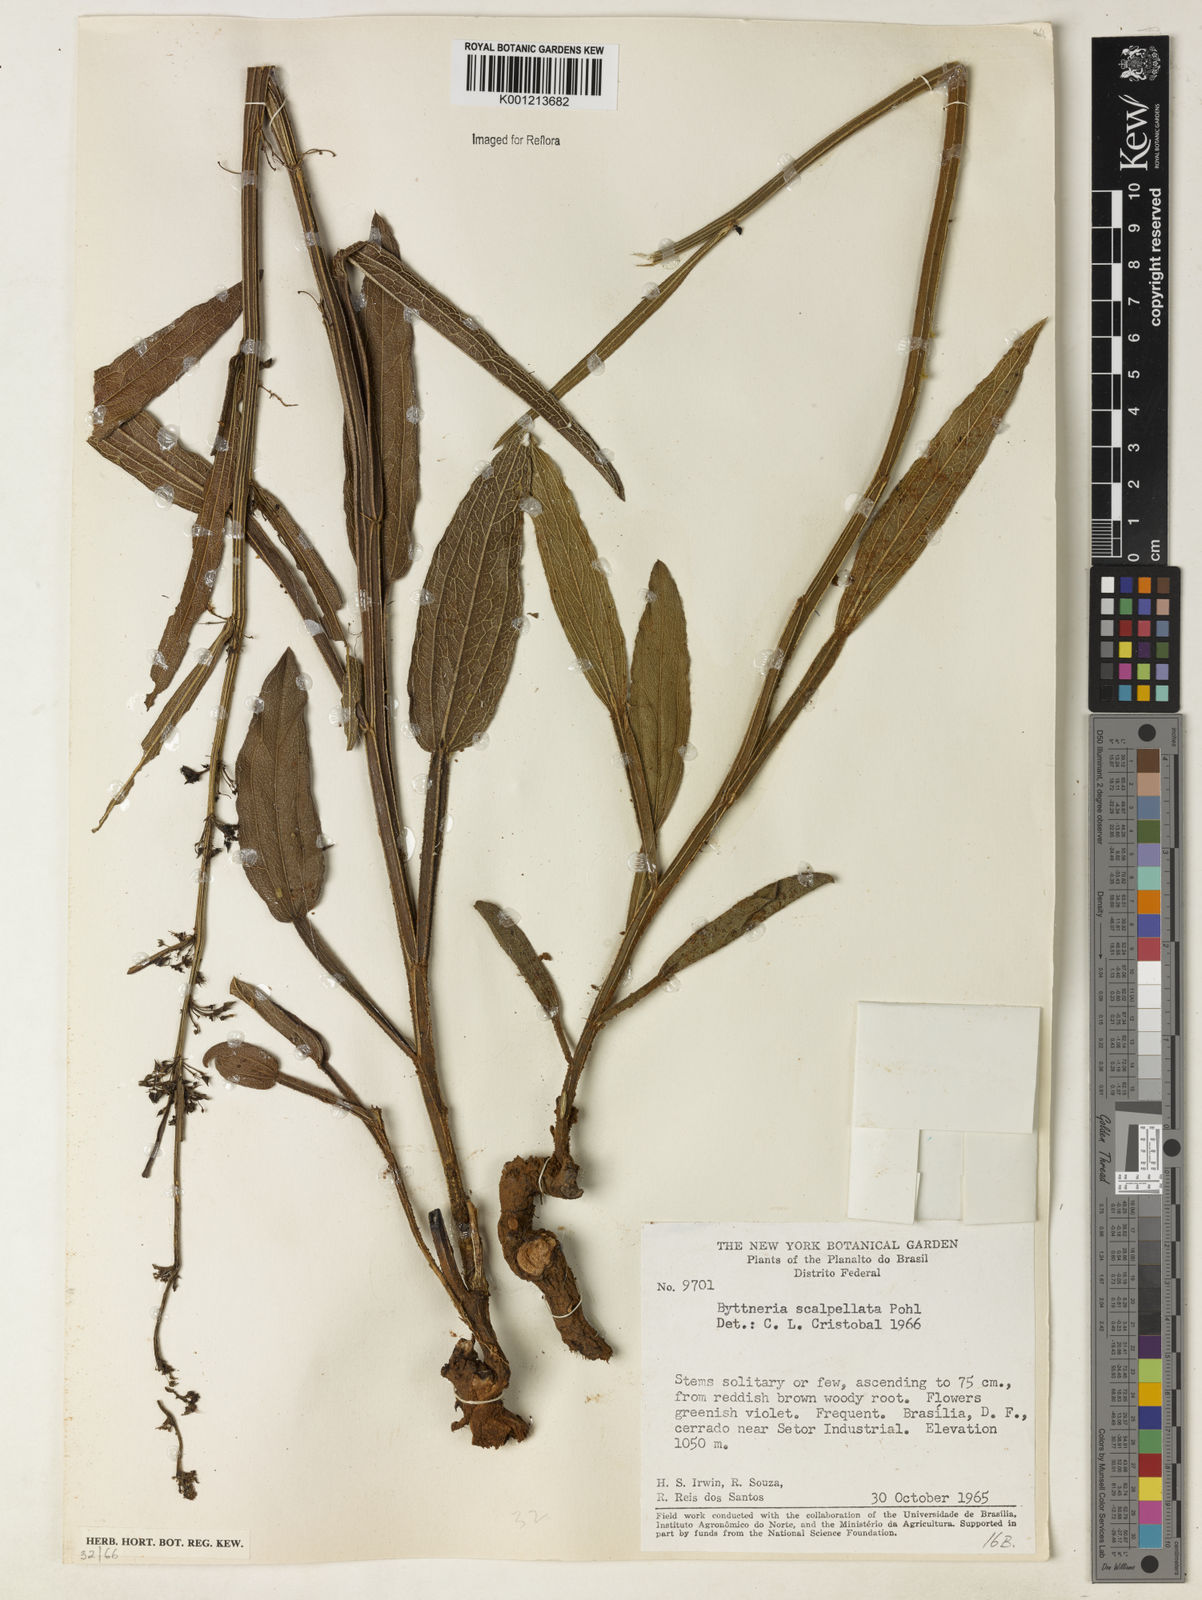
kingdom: Plantae
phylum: Tracheophyta
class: Magnoliopsida
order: Malvales
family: Malvaceae
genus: Byttneria
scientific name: Byttneria scalpellata
